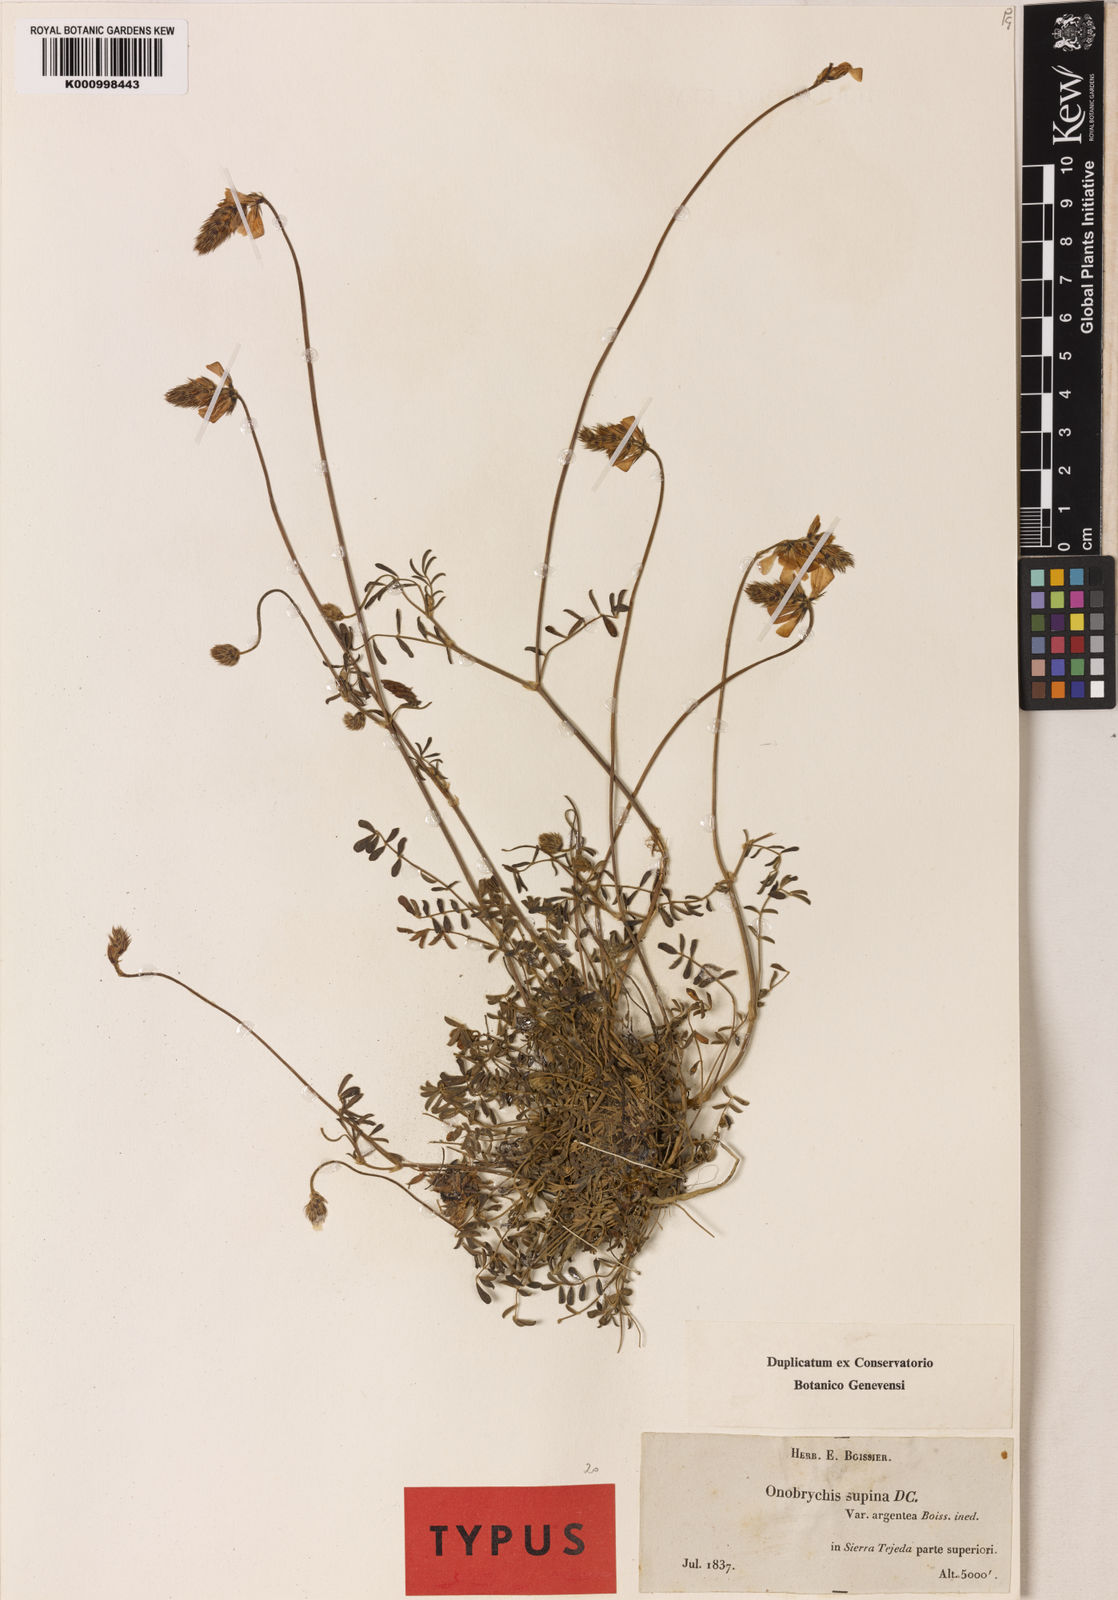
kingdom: Plantae
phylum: Tracheophyta
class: Magnoliopsida
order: Fabales
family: Fabaceae
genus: Onobrychis
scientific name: Onobrychis supina
